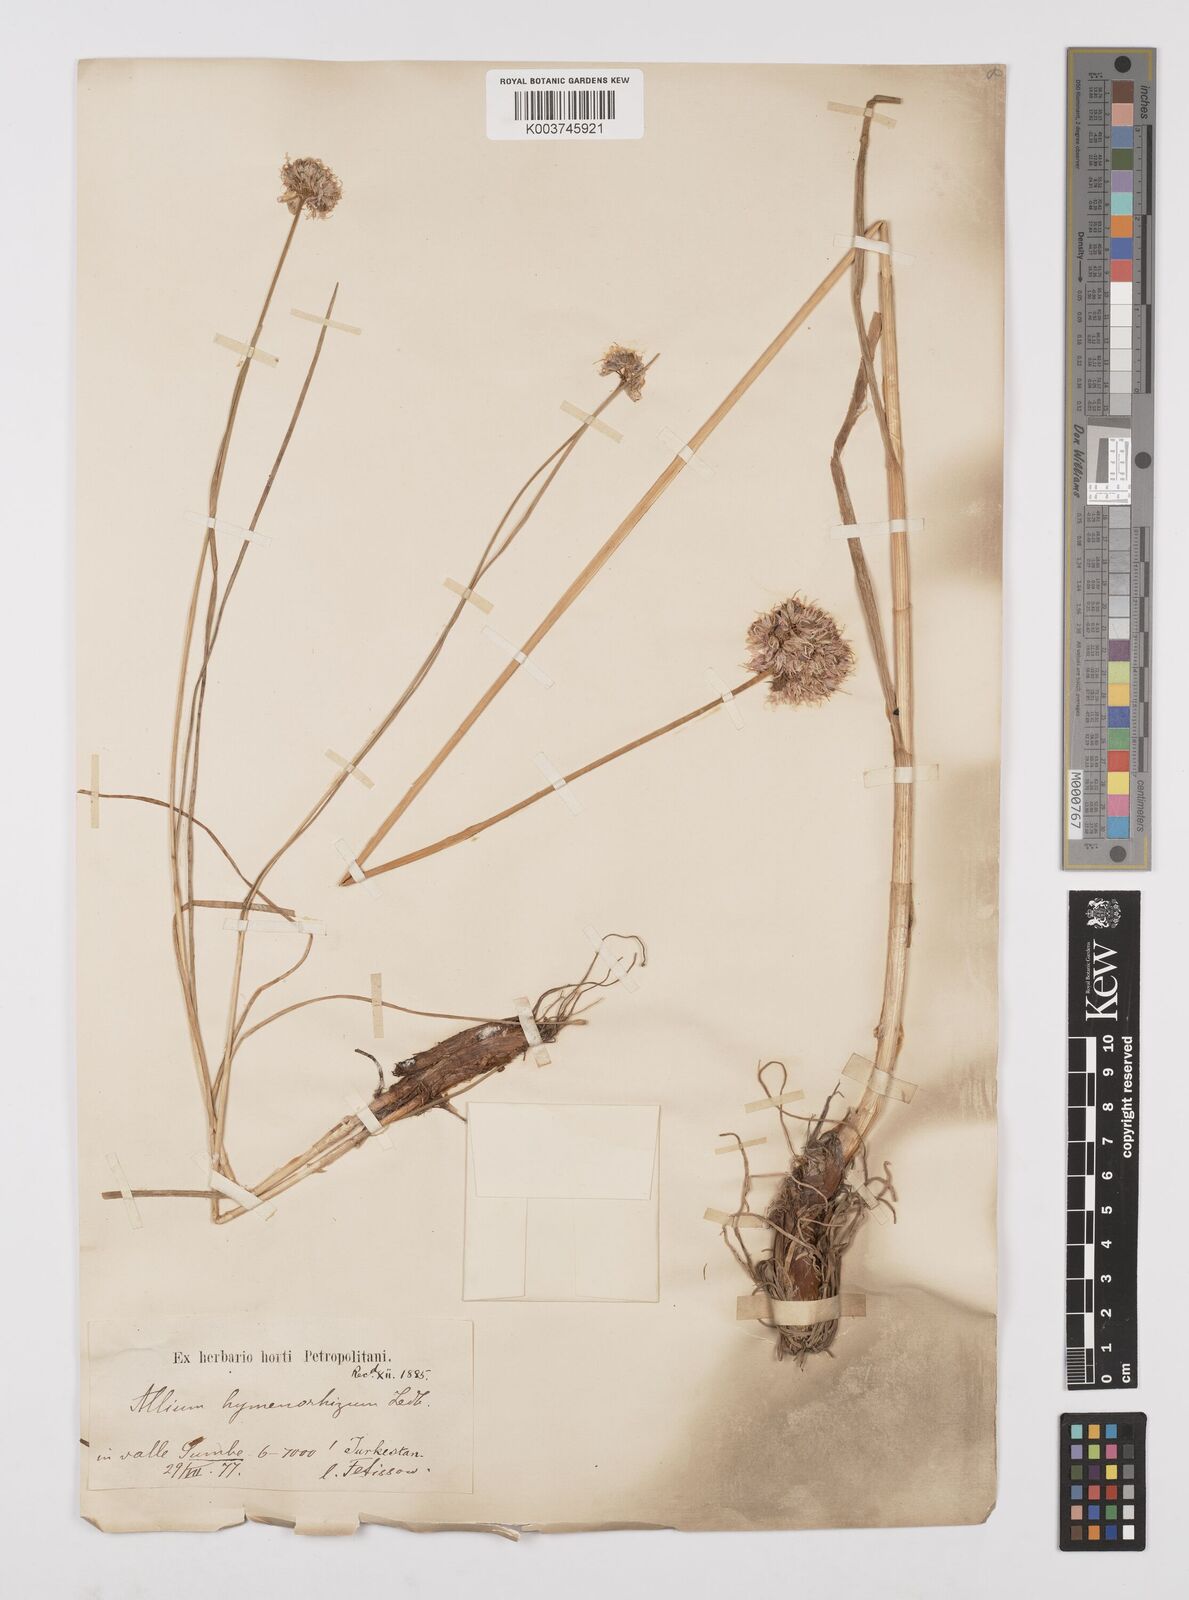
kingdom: Plantae
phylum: Tracheophyta
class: Liliopsida
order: Asparagales
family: Amaryllidaceae
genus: Allium
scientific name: Allium hymenorhizum
